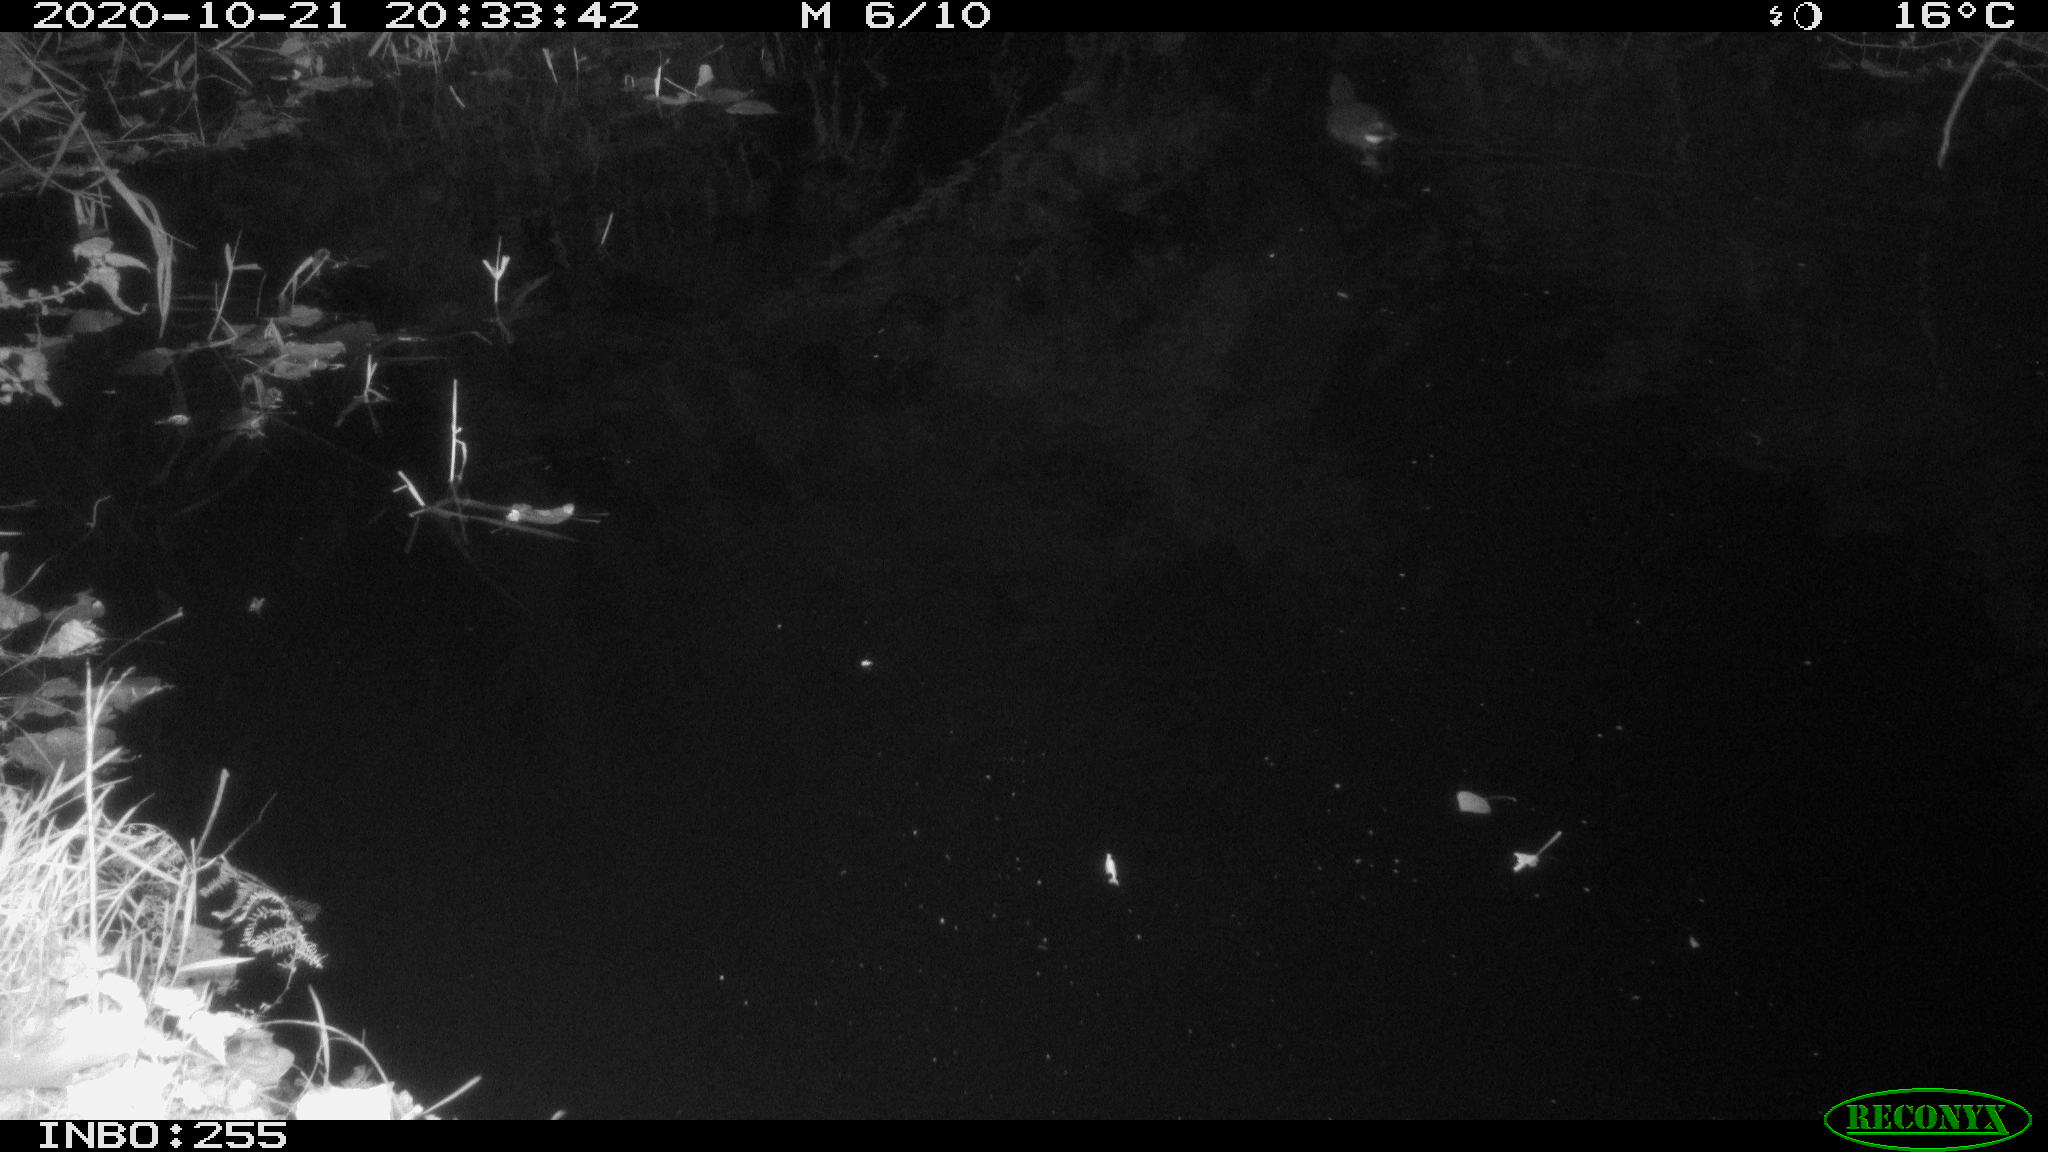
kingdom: Animalia
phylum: Chordata
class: Aves
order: Gruiformes
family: Rallidae
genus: Gallinula
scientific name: Gallinula chloropus
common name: Common moorhen
